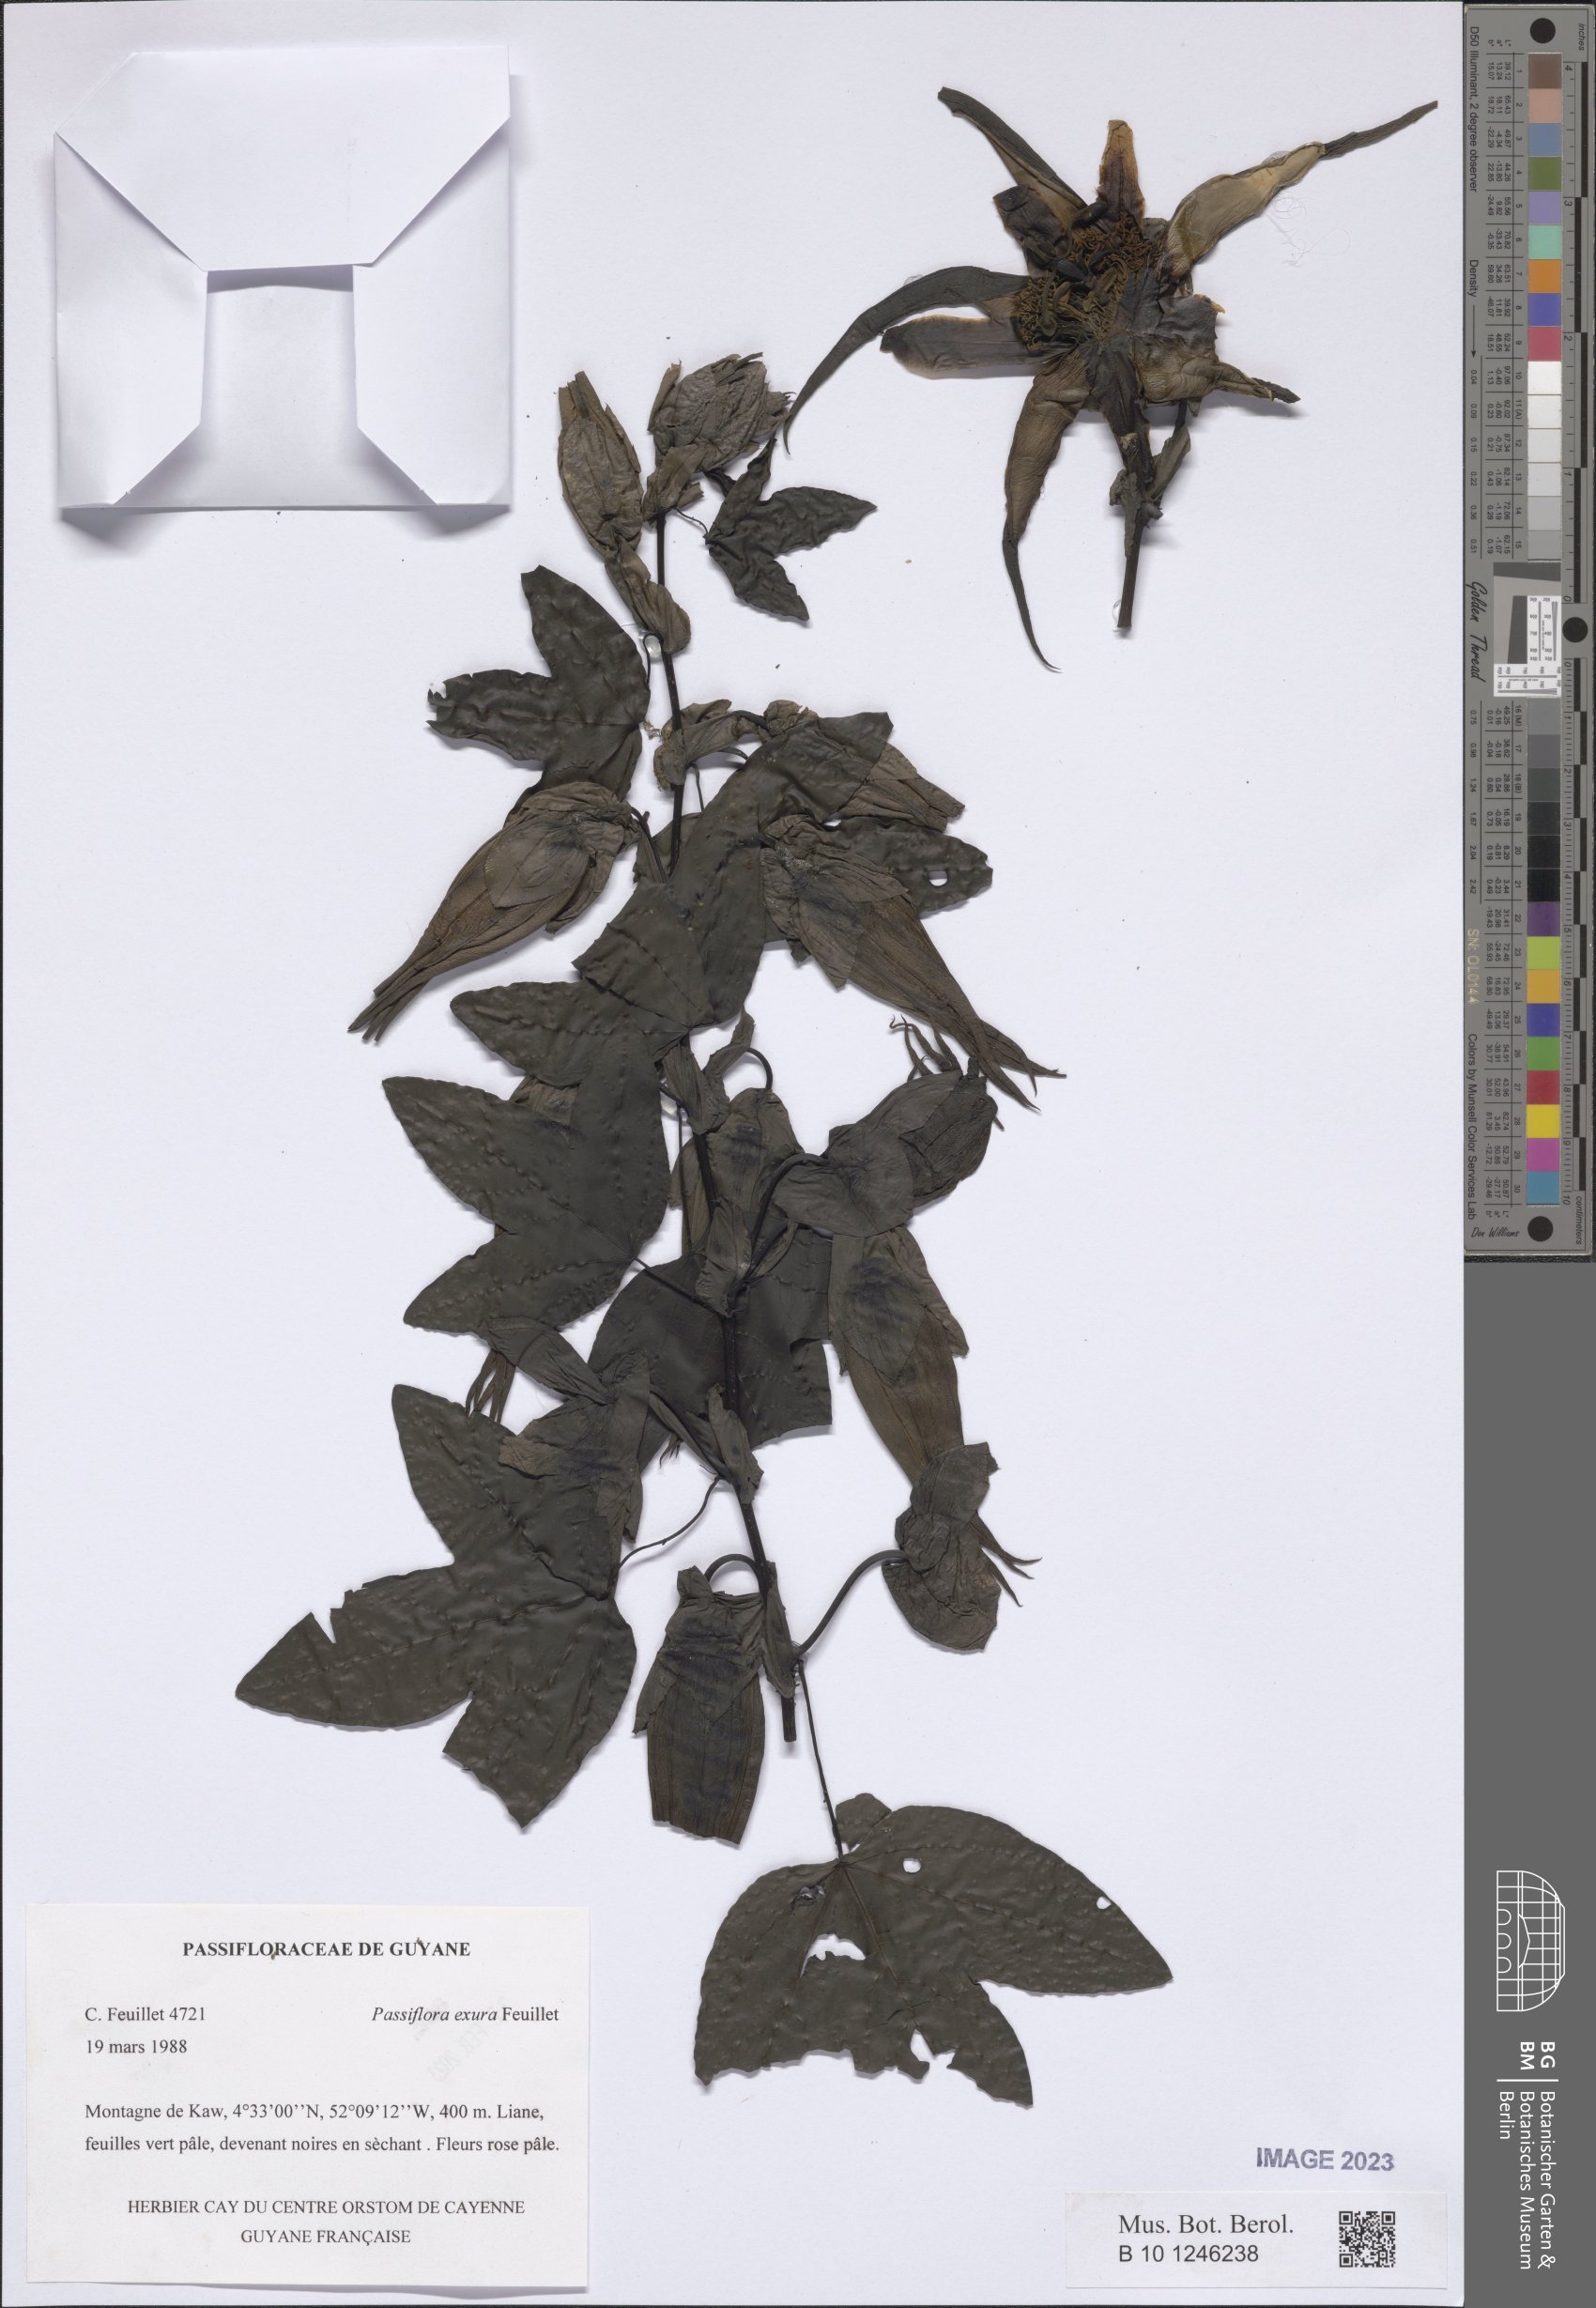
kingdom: Plantae
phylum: Tracheophyta
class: Magnoliopsida
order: Malpighiales
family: Passifloraceae
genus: Passiflora
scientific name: Passiflora exura
